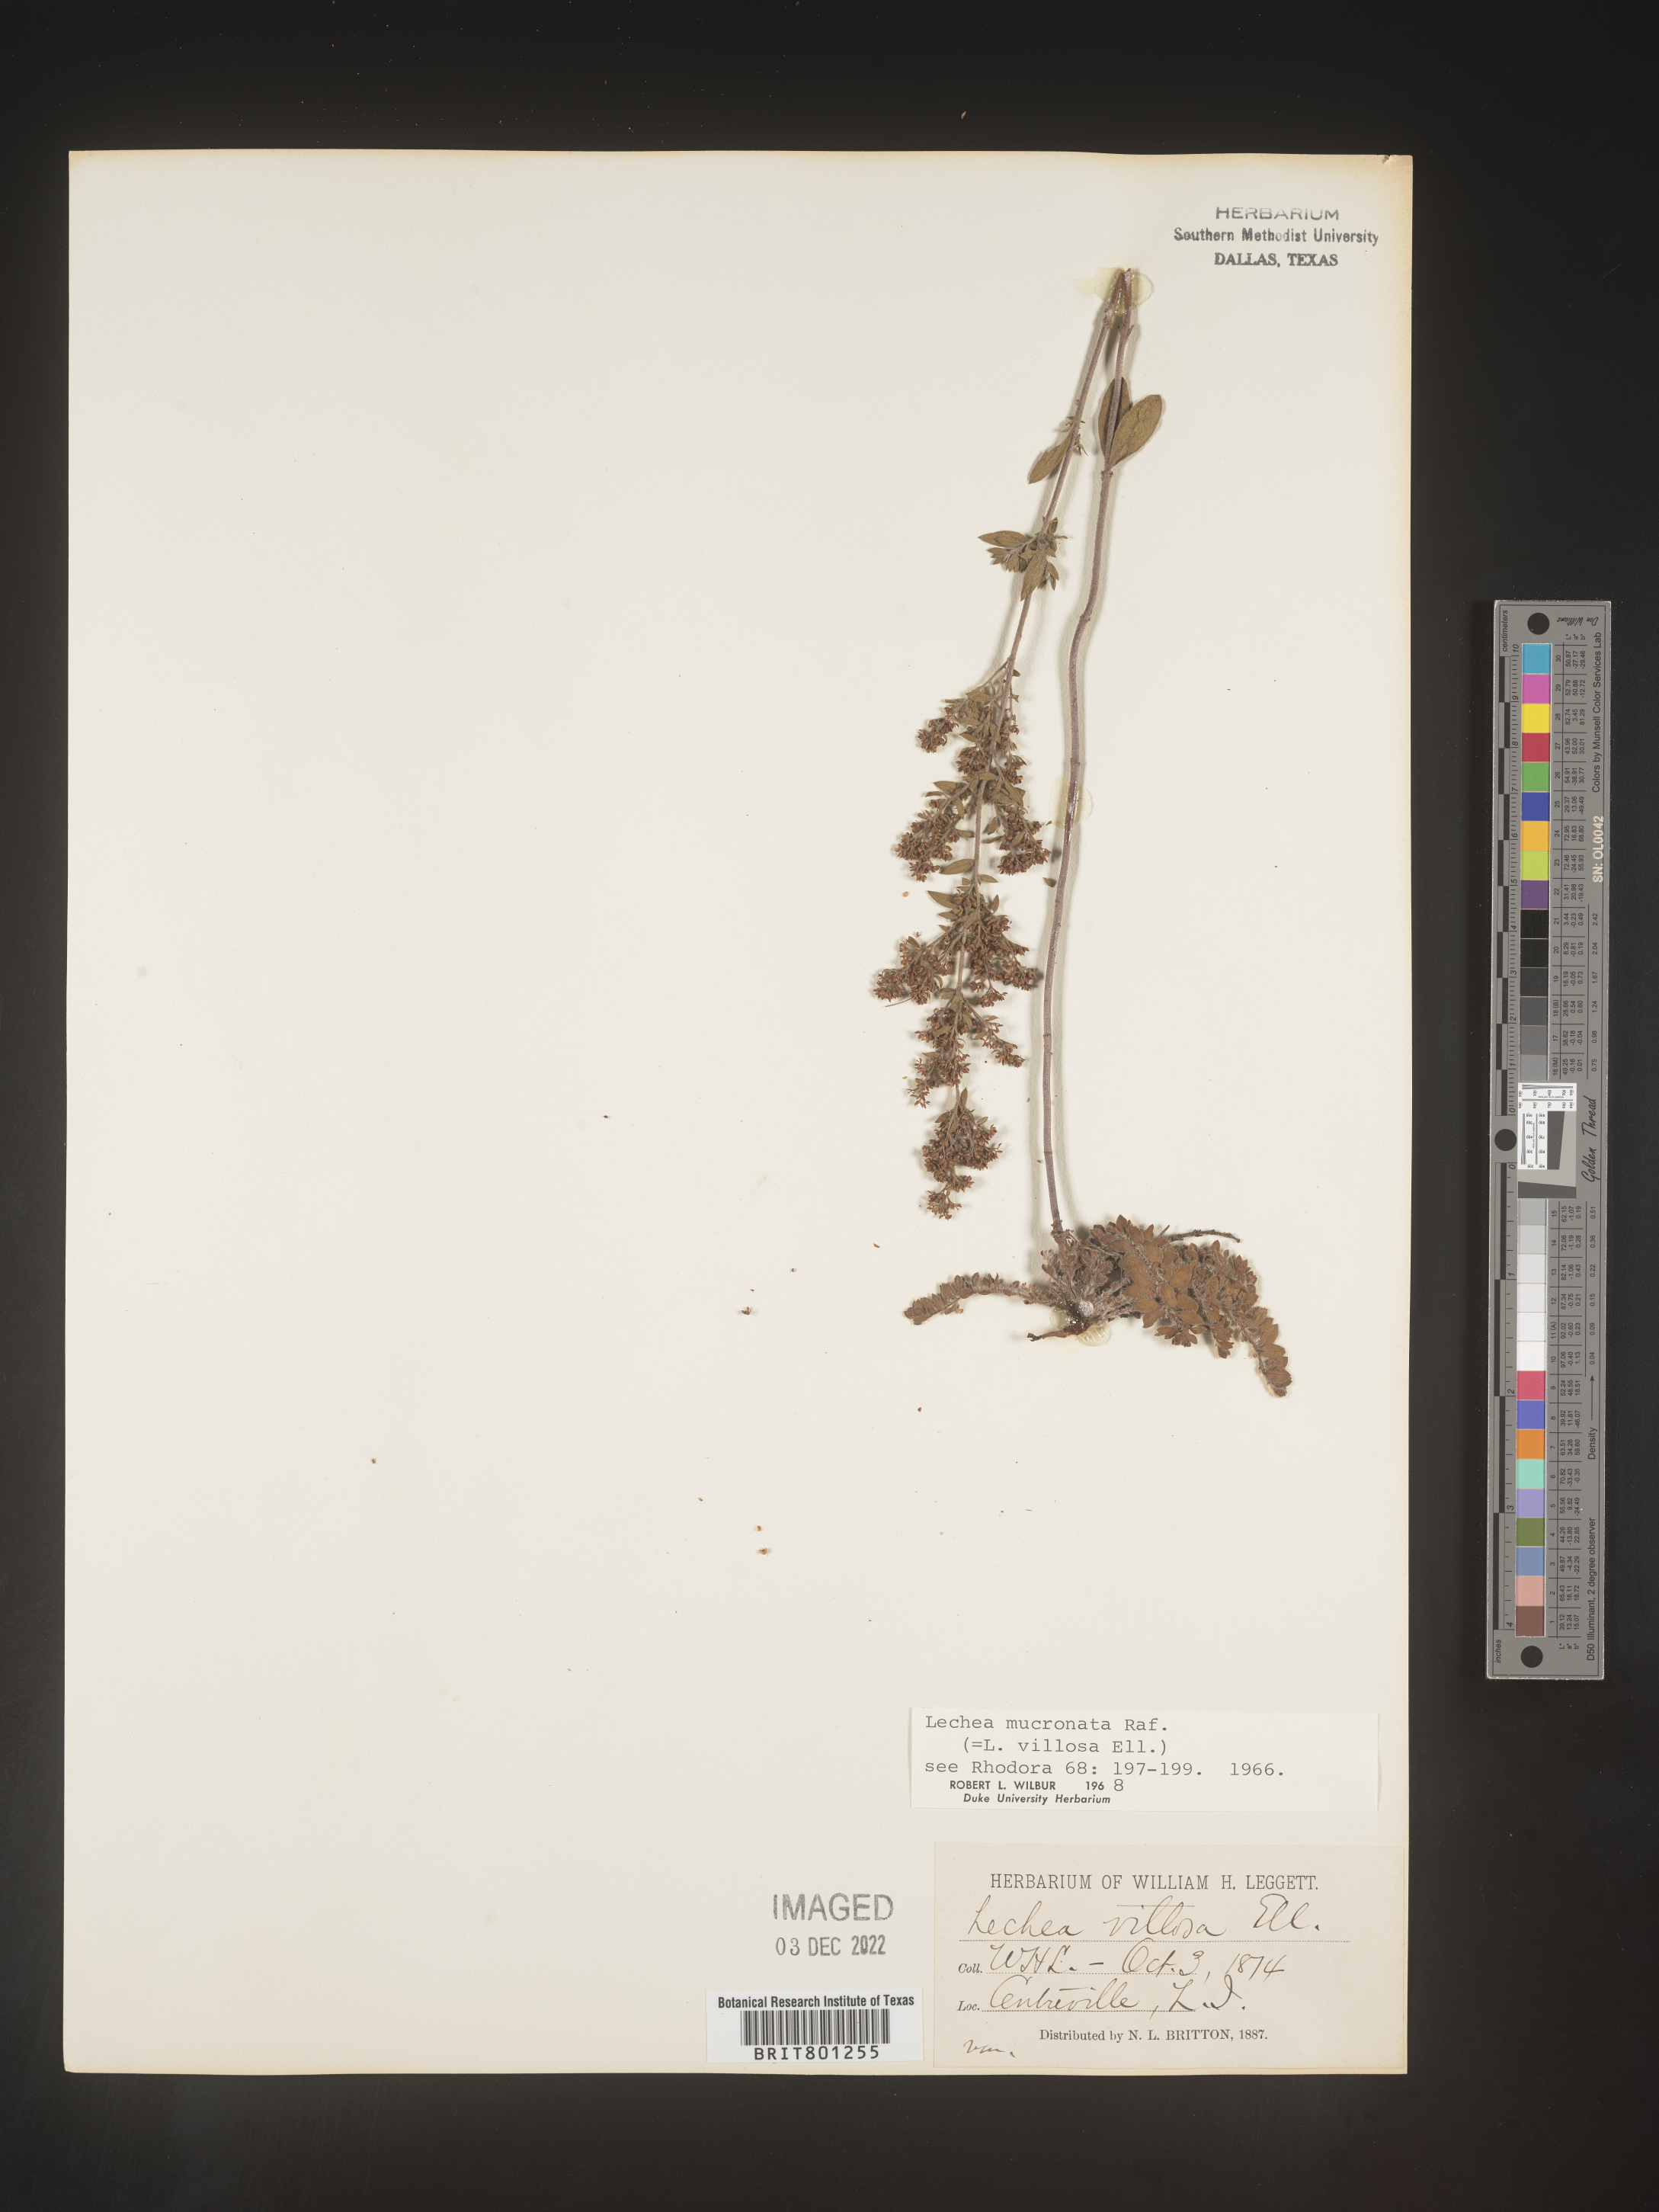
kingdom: Plantae
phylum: Tracheophyta
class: Magnoliopsida
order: Malvales
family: Cistaceae
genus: Lechea
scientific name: Lechea mucronata
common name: Hairy pinweed
